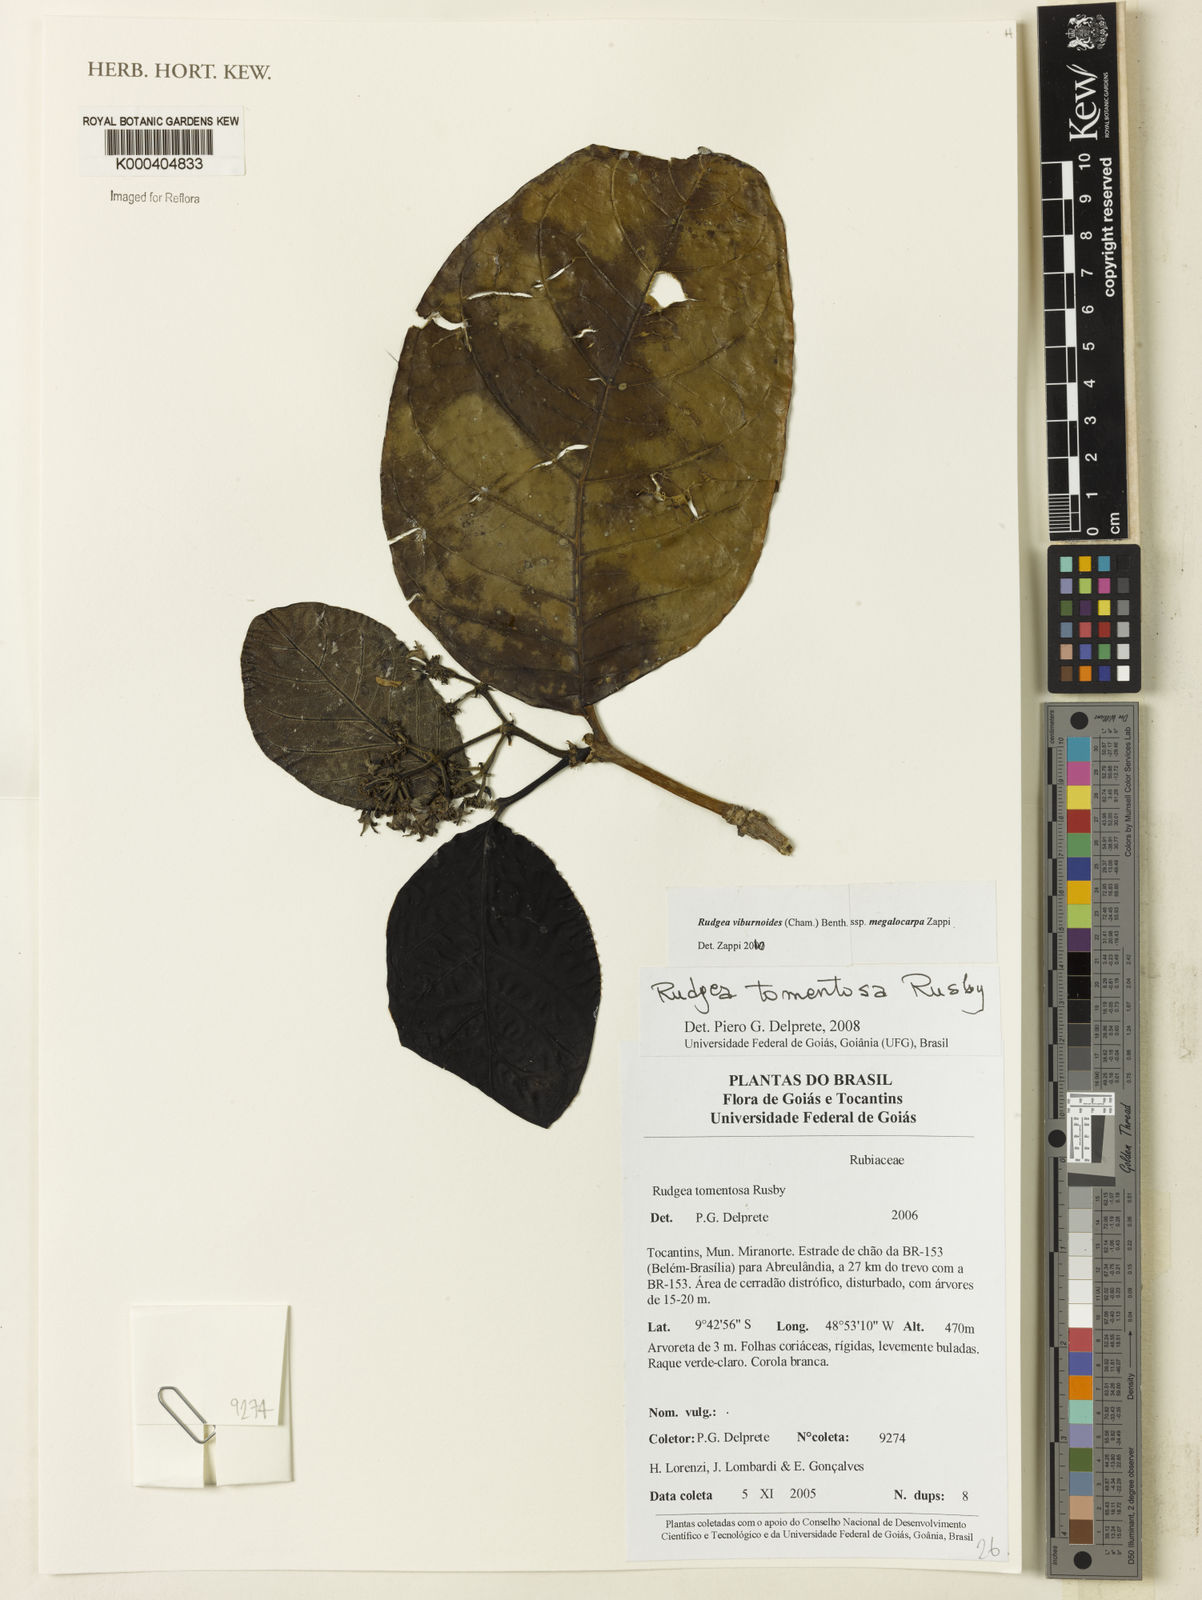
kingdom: Plantae
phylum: Tracheophyta
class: Magnoliopsida
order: Gentianales
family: Rubiaceae
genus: Rudgea
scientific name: Rudgea viburnoides
